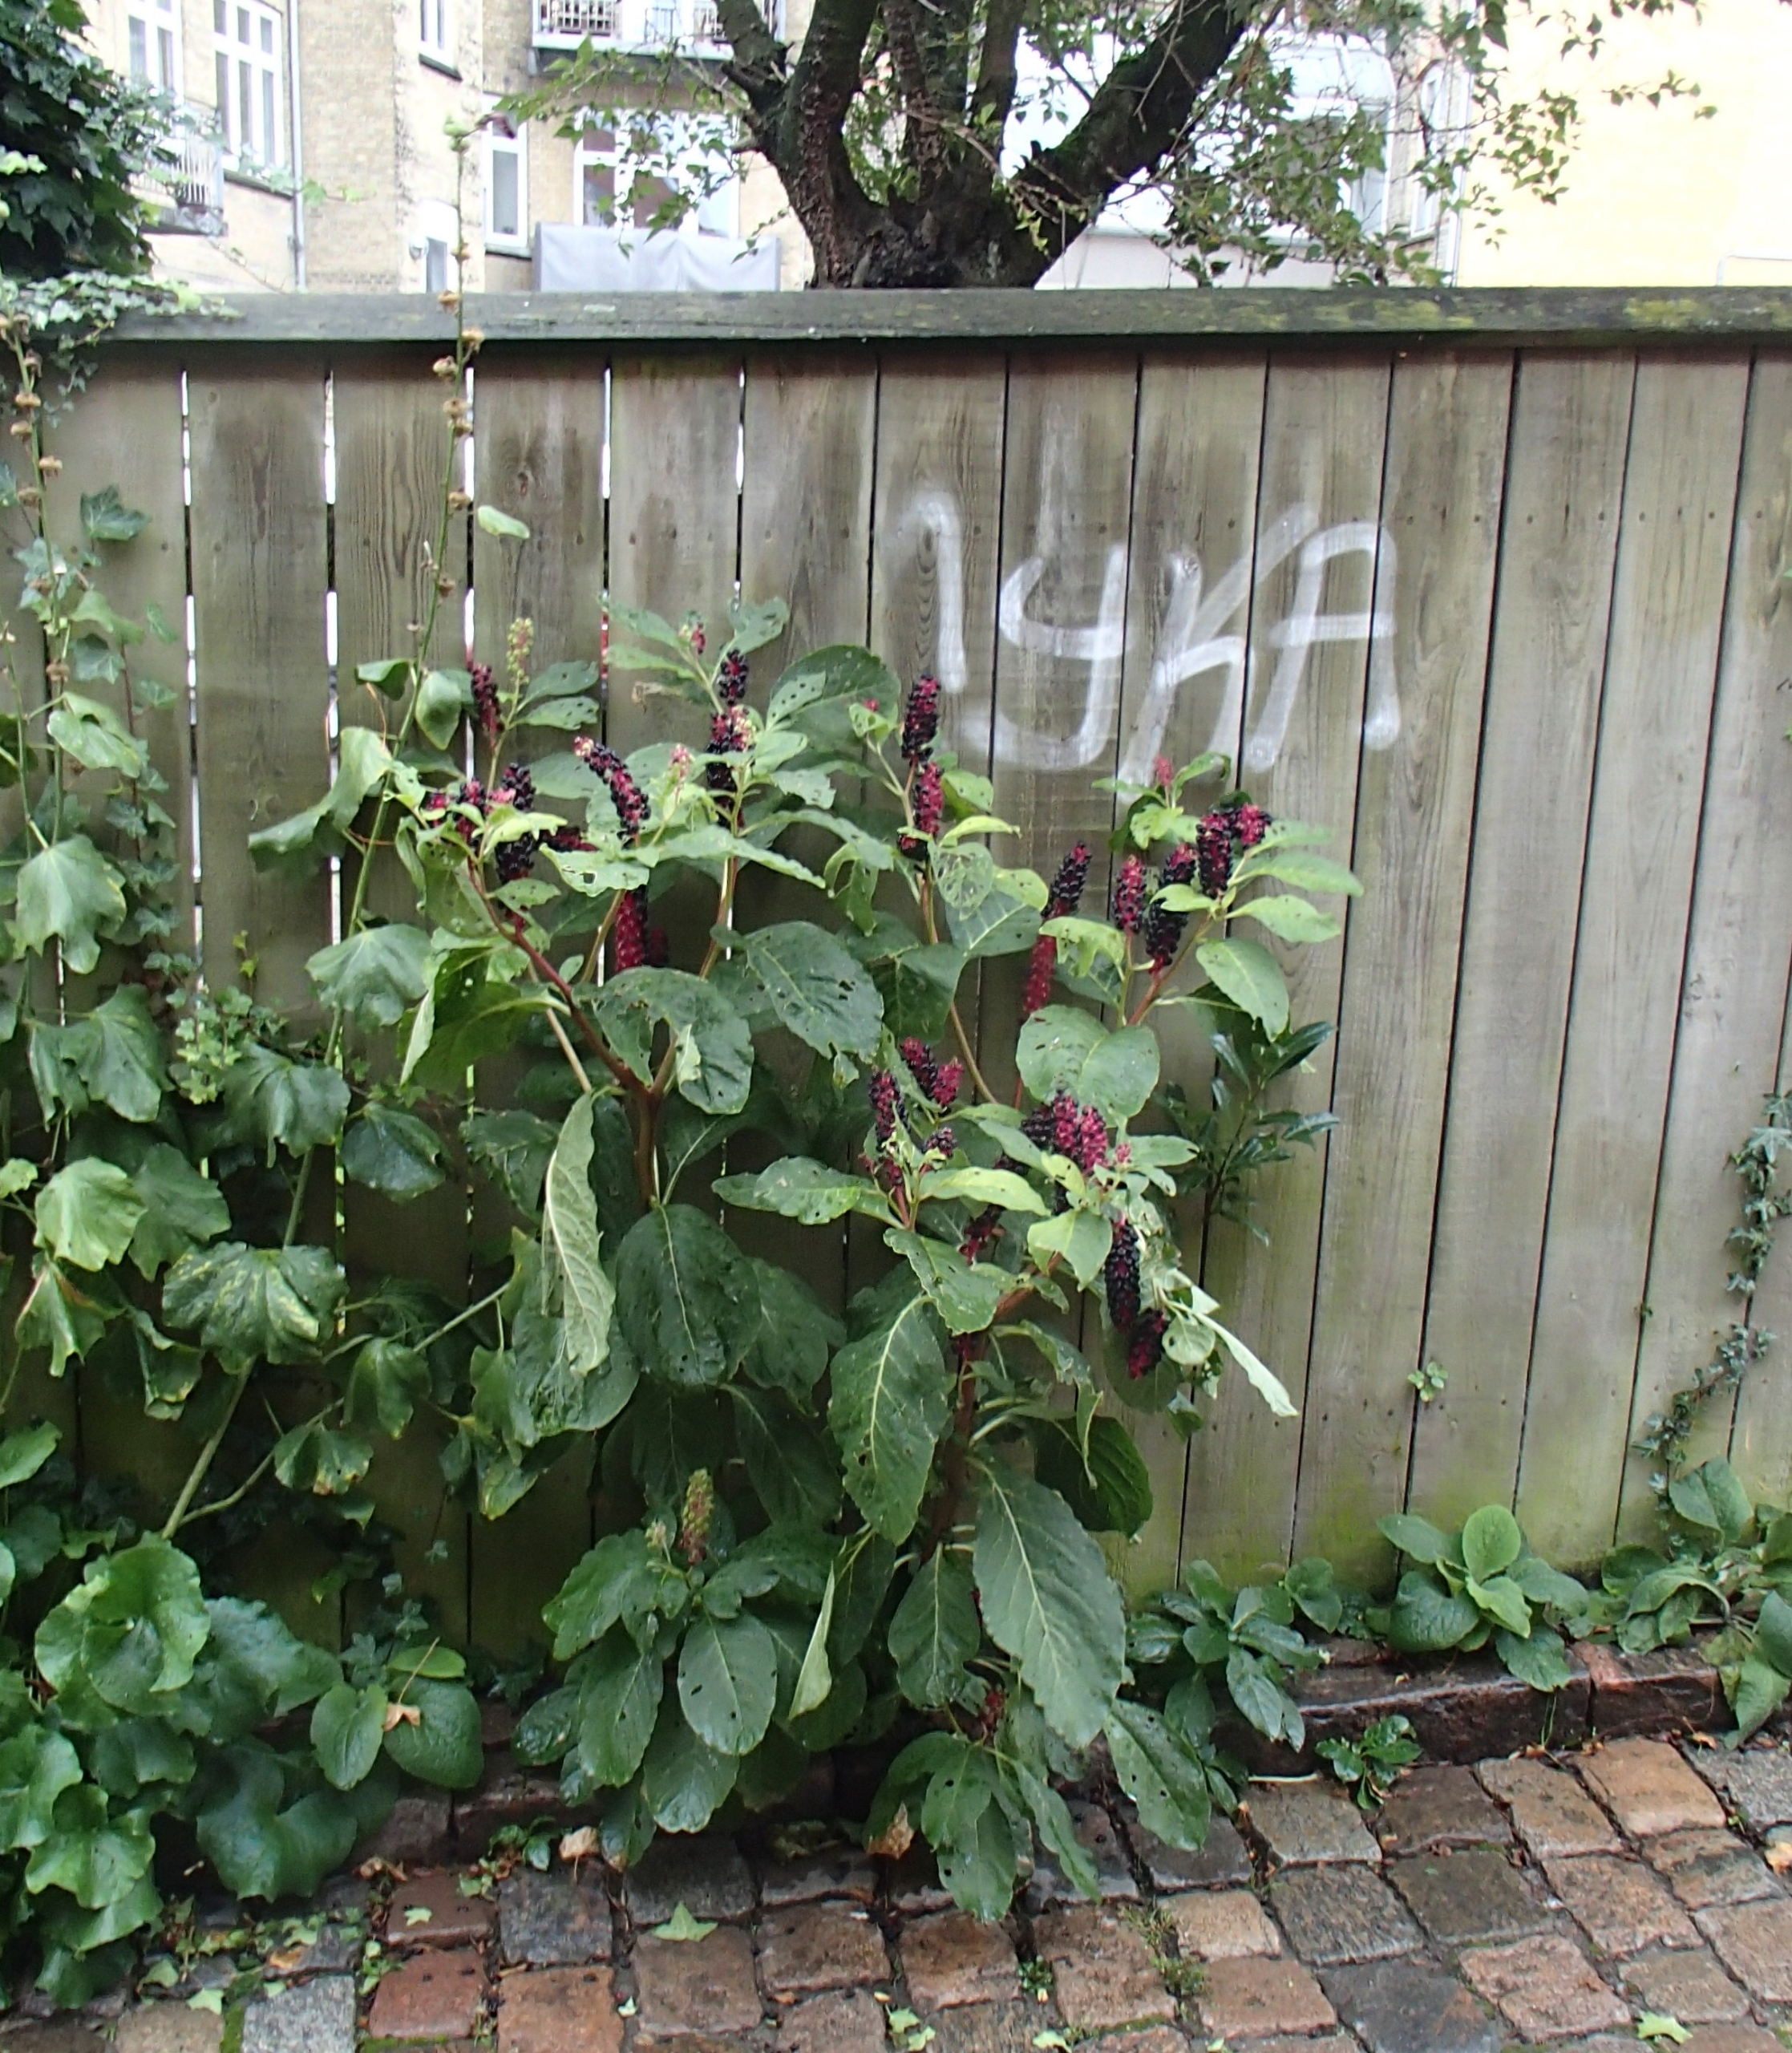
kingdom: Plantae
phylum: Tracheophyta
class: Magnoliopsida
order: Caryophyllales
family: Phytolaccaceae
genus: Phytolacca
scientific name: Phytolacca acinosa
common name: Asiatisk kermesbær
